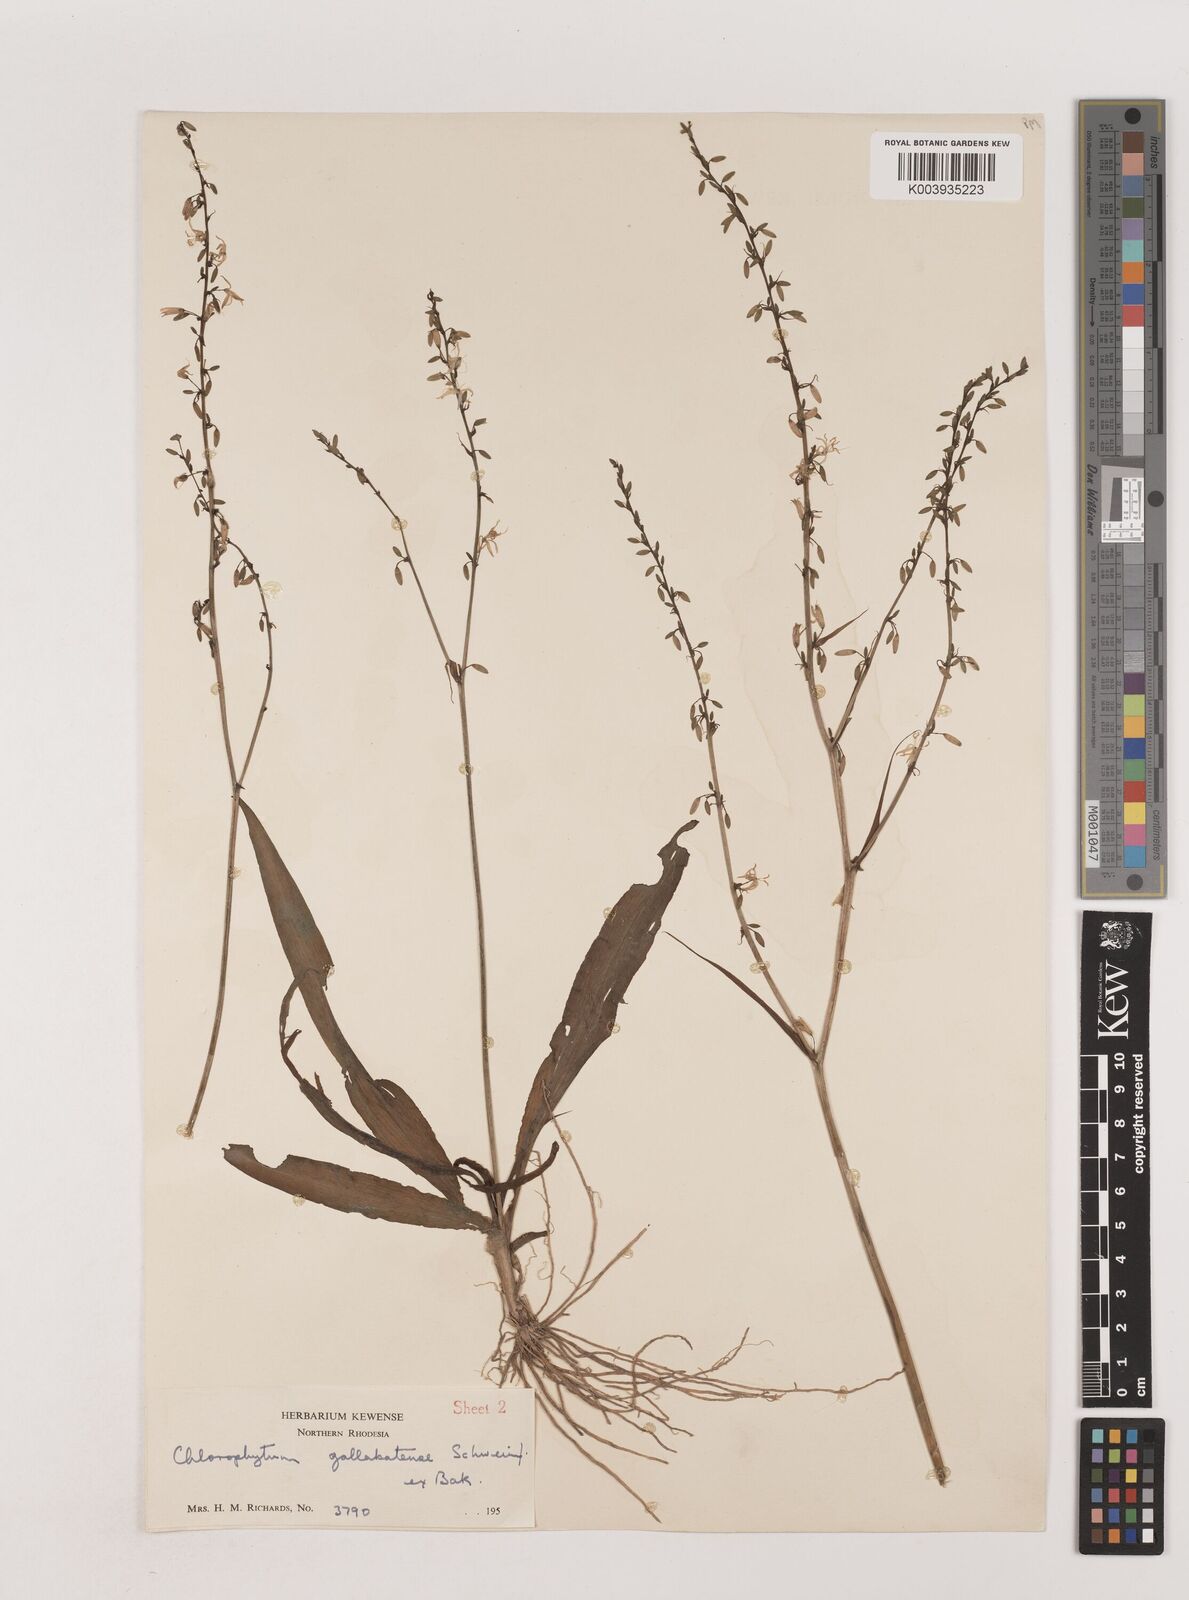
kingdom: Plantae
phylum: Tracheophyta
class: Liliopsida
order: Asparagales
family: Asparagaceae
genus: Chlorophytum
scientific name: Chlorophytum gallabatense
